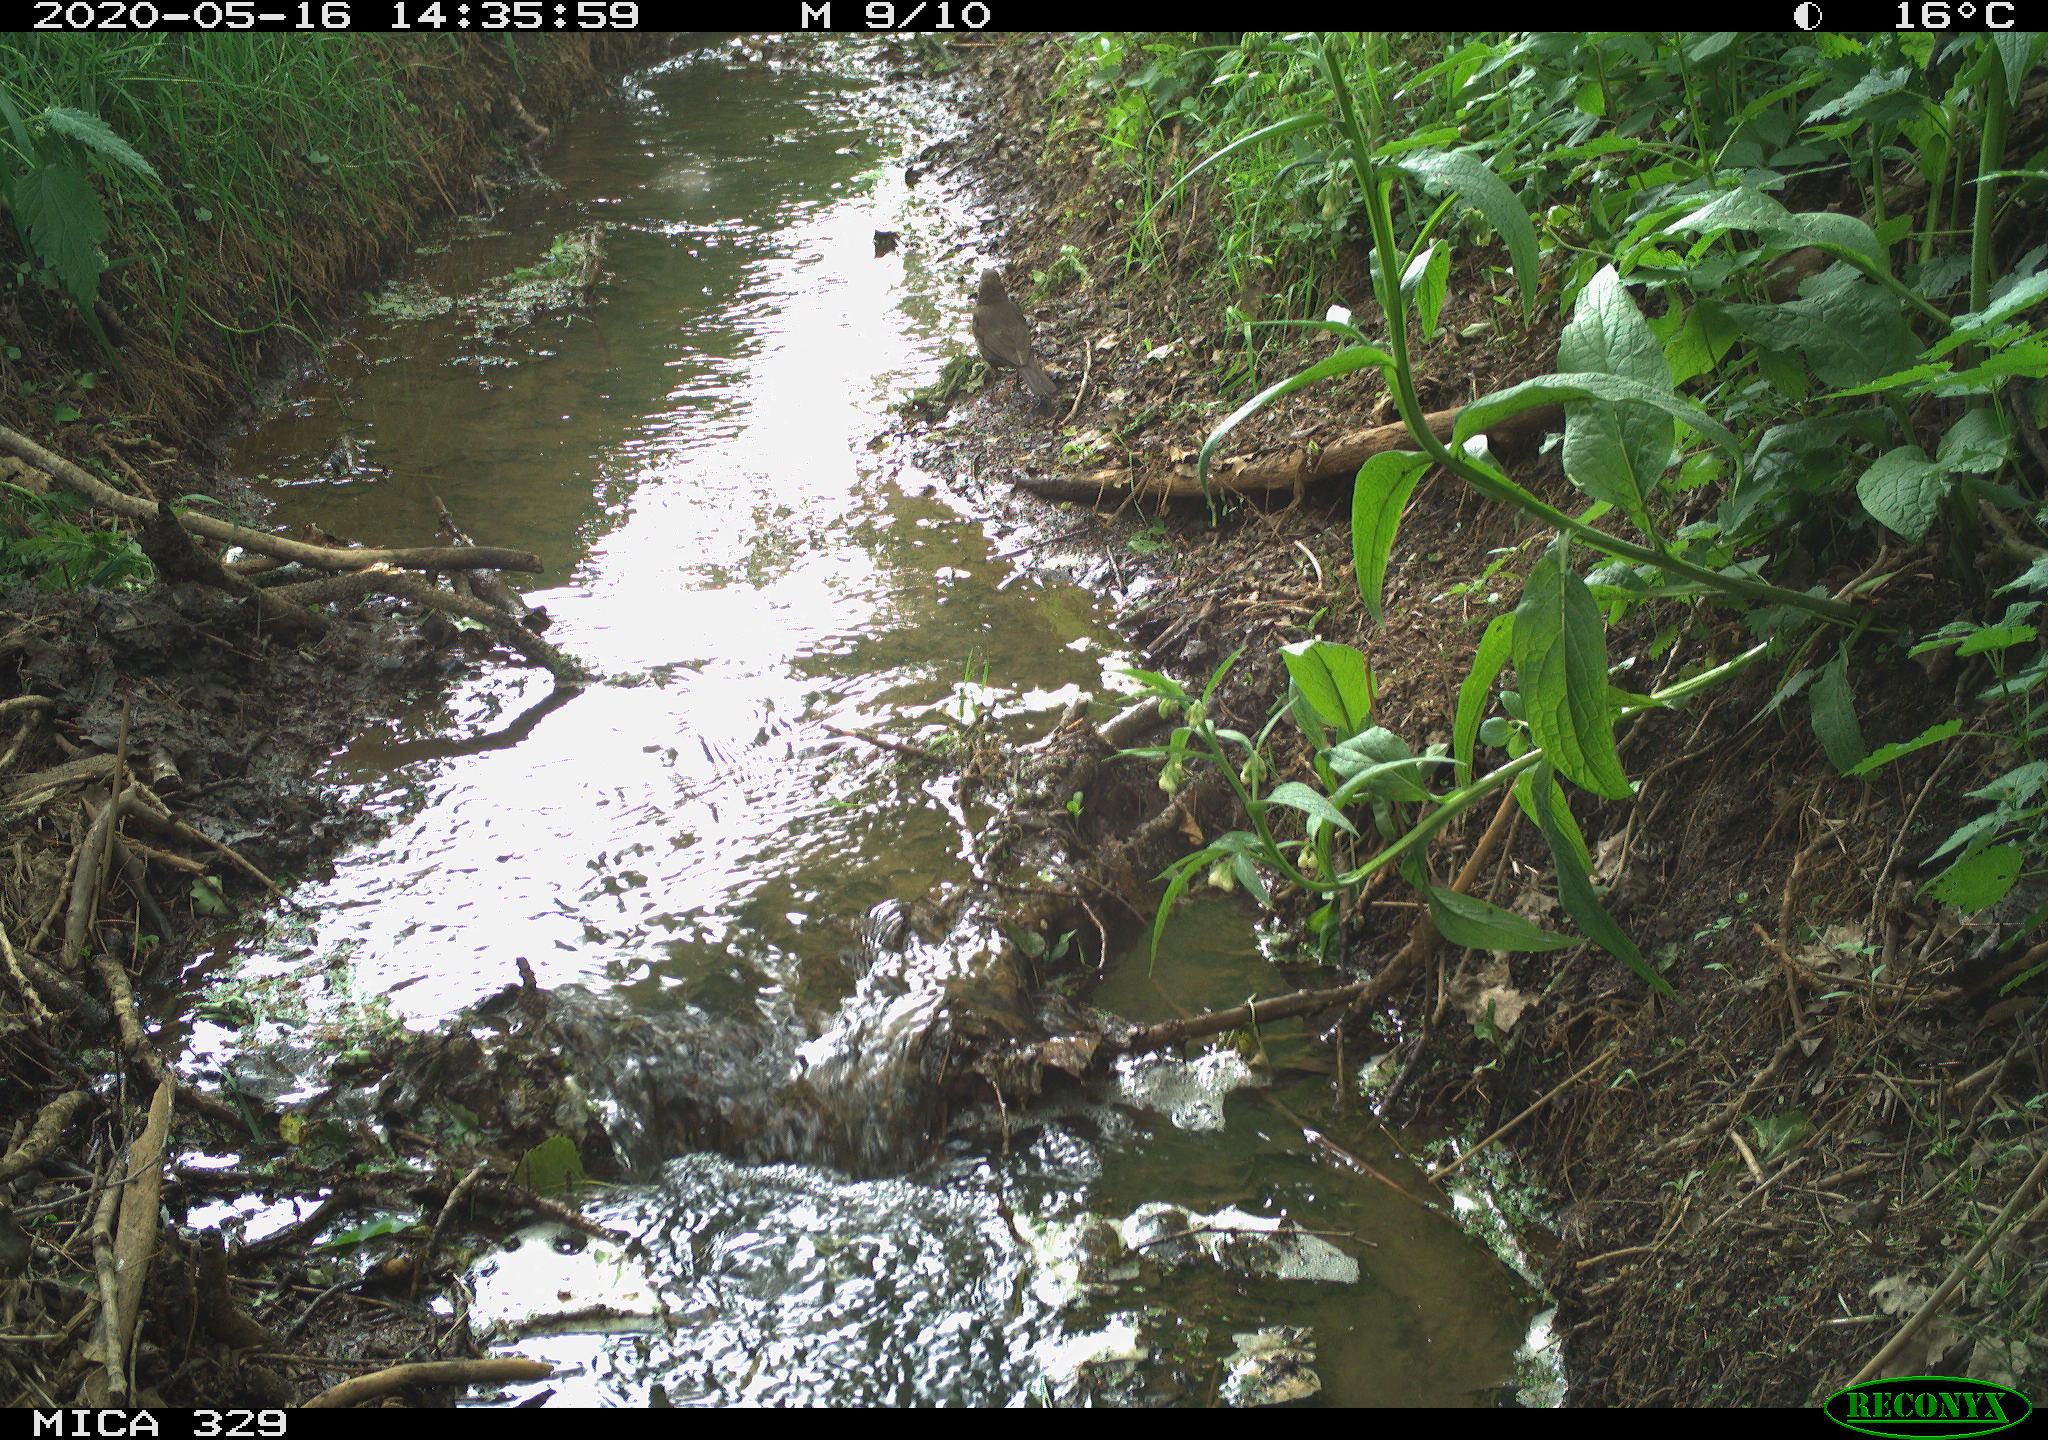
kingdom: Animalia
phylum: Chordata
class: Aves
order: Passeriformes
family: Turdidae
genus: Turdus
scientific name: Turdus merula
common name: Common blackbird
